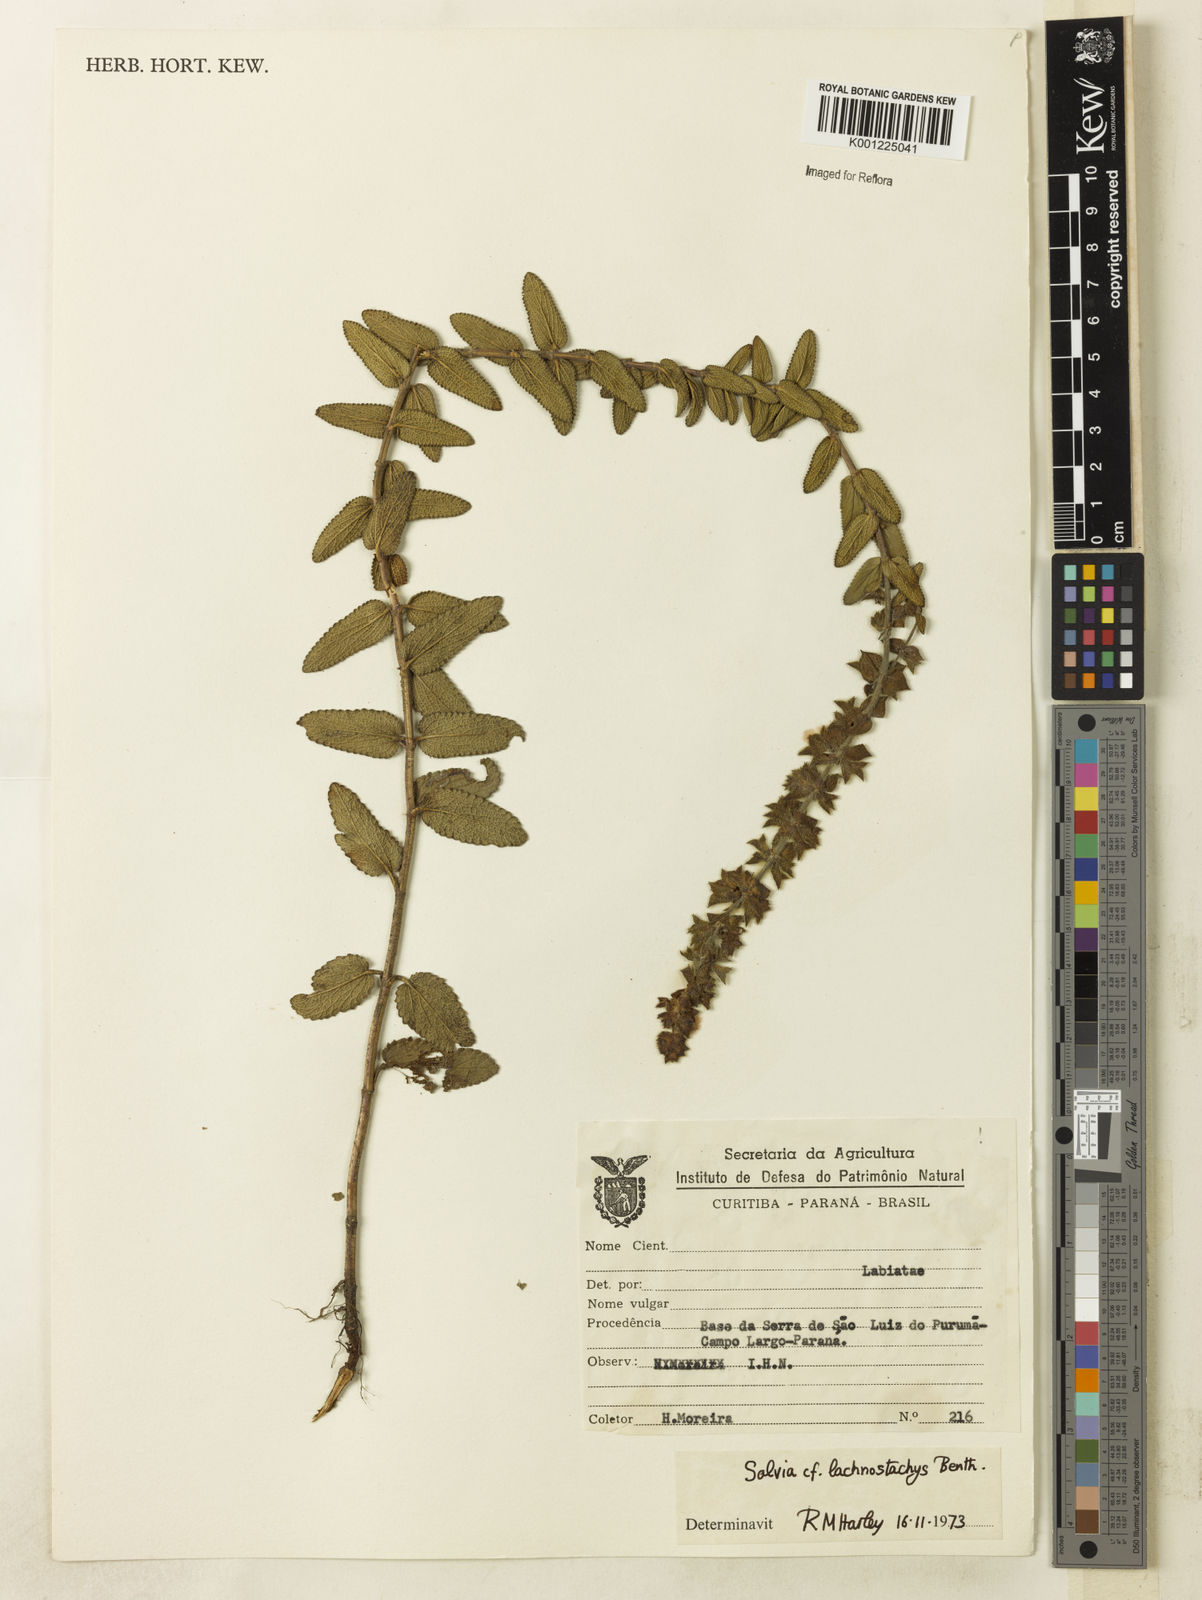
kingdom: Plantae
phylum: Tracheophyta
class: Magnoliopsida
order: Lamiales
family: Lamiaceae
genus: Salvia
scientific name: Salvia lachnostachys
